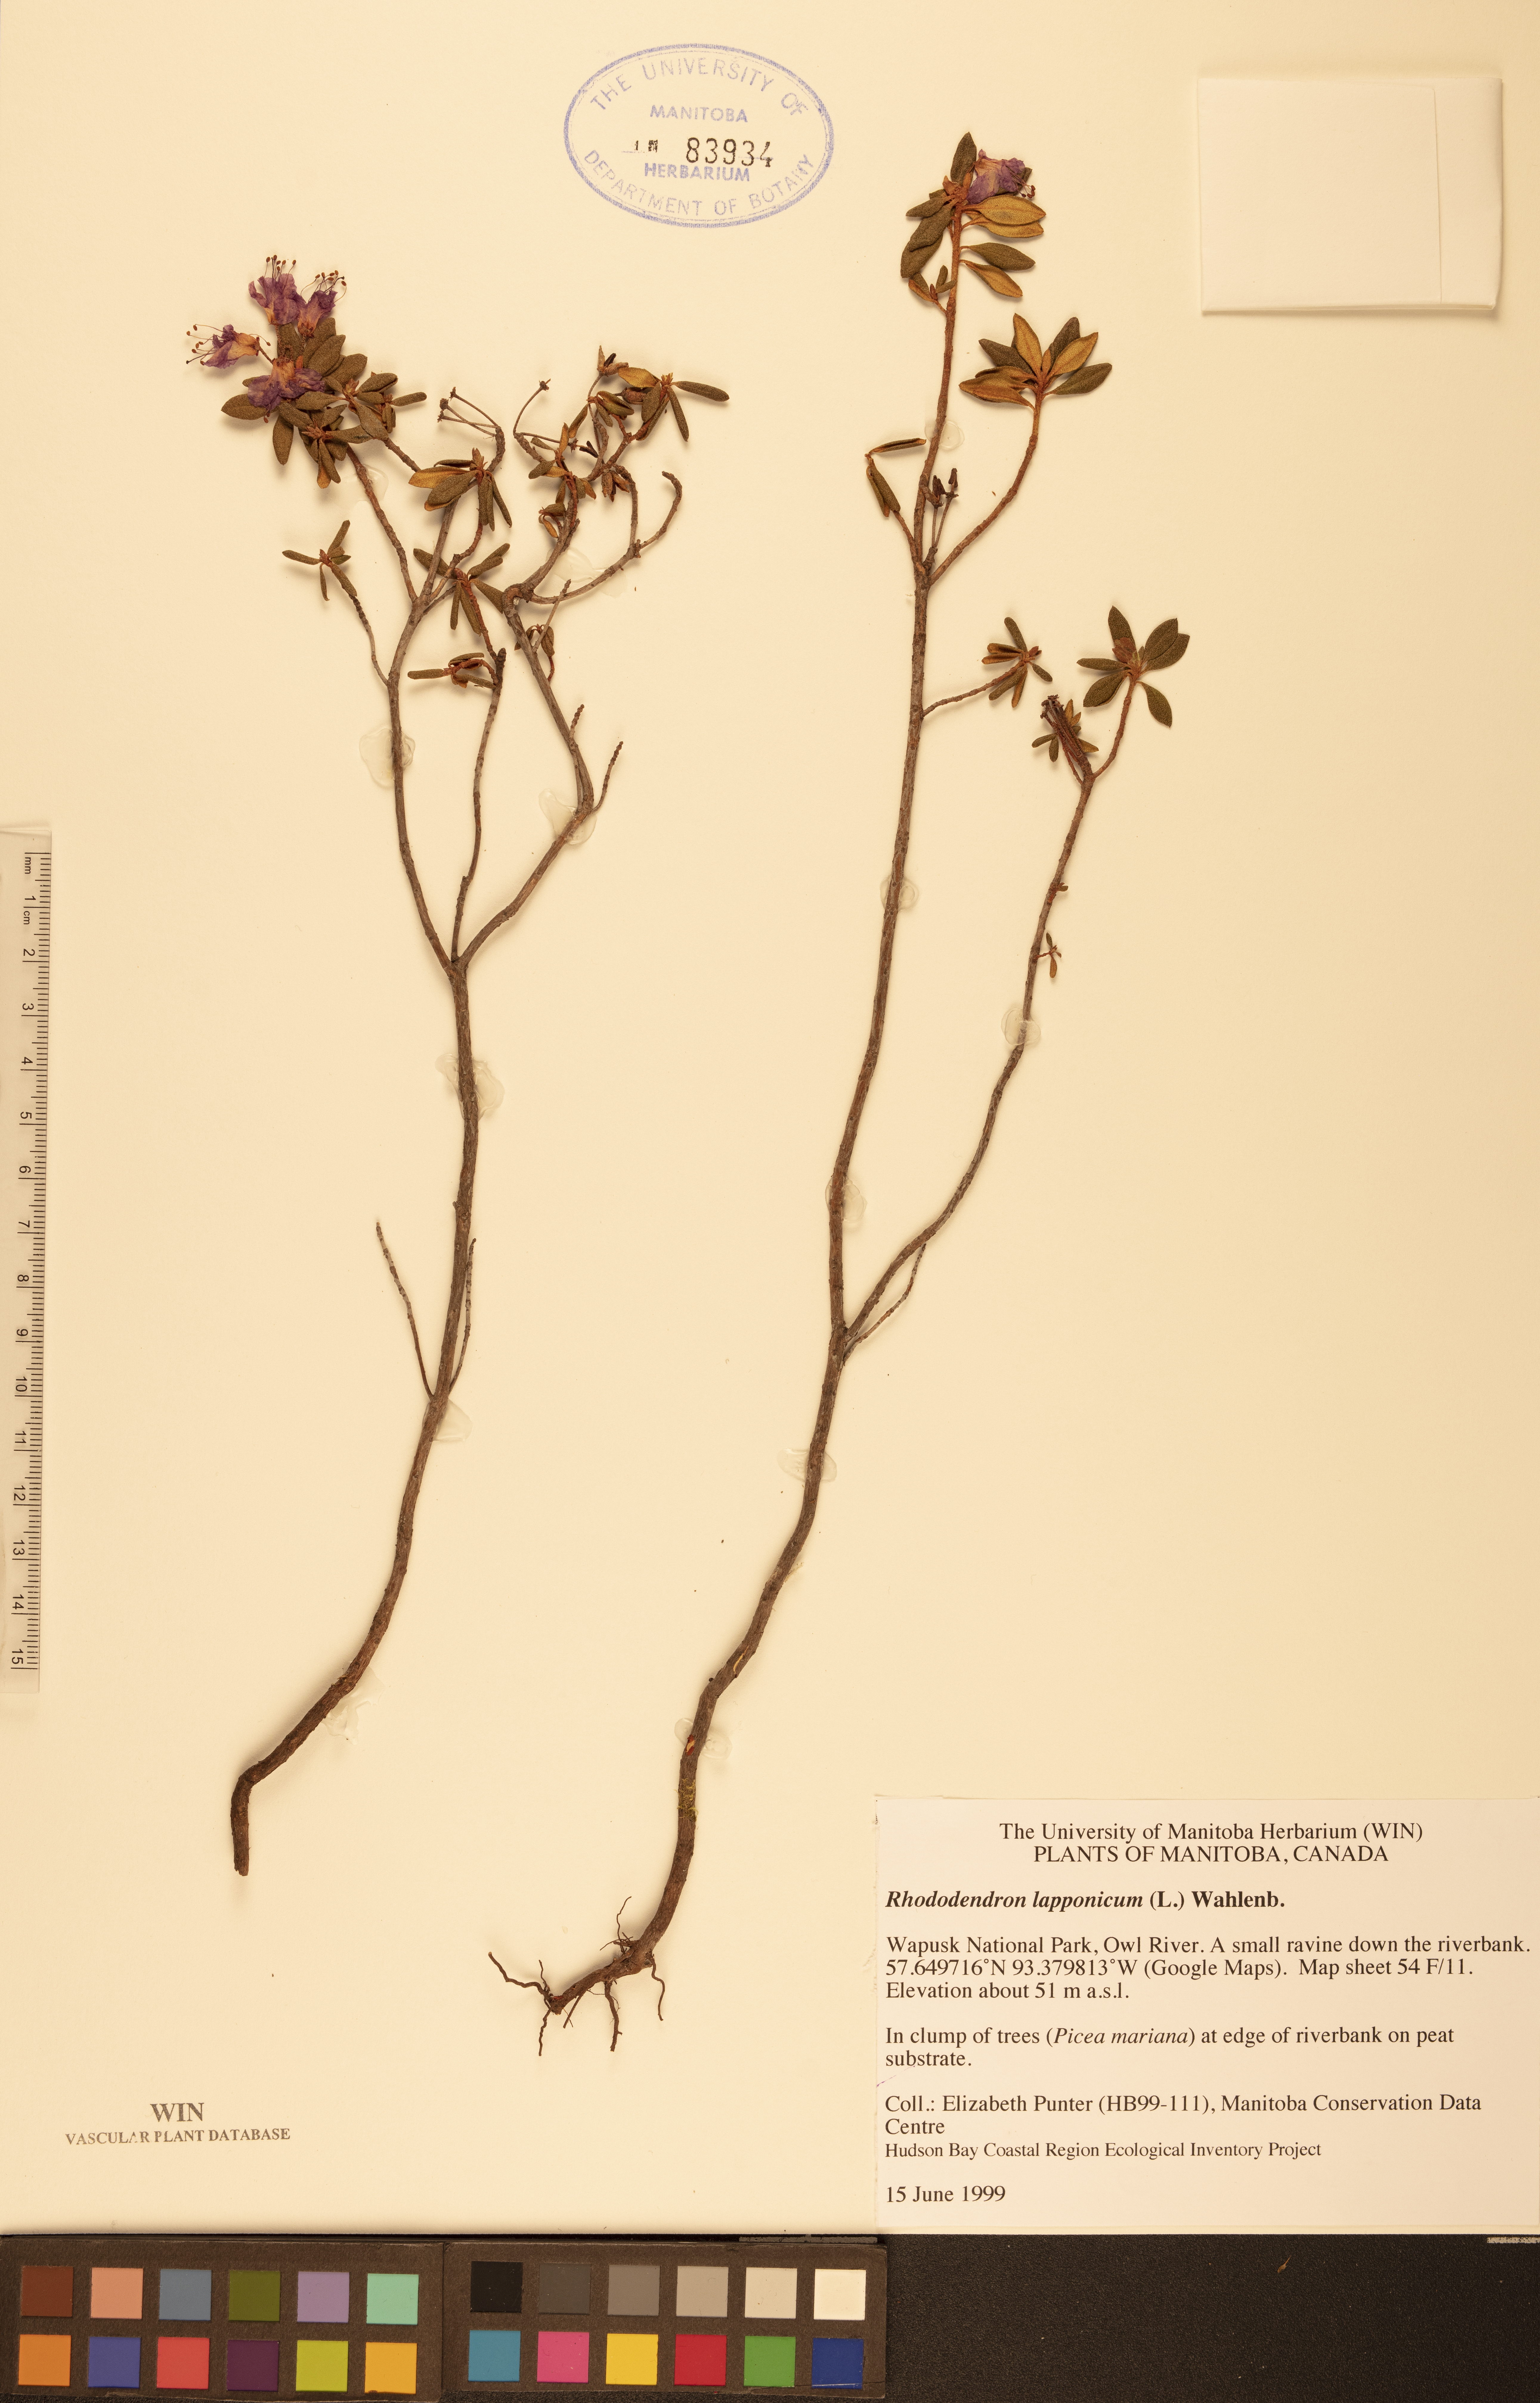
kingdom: Plantae
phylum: Tracheophyta
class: Magnoliopsida
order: Ericales
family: Ericaceae
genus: Rhododendron
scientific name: Rhododendron lapponicum
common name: Lapland rhododendron
